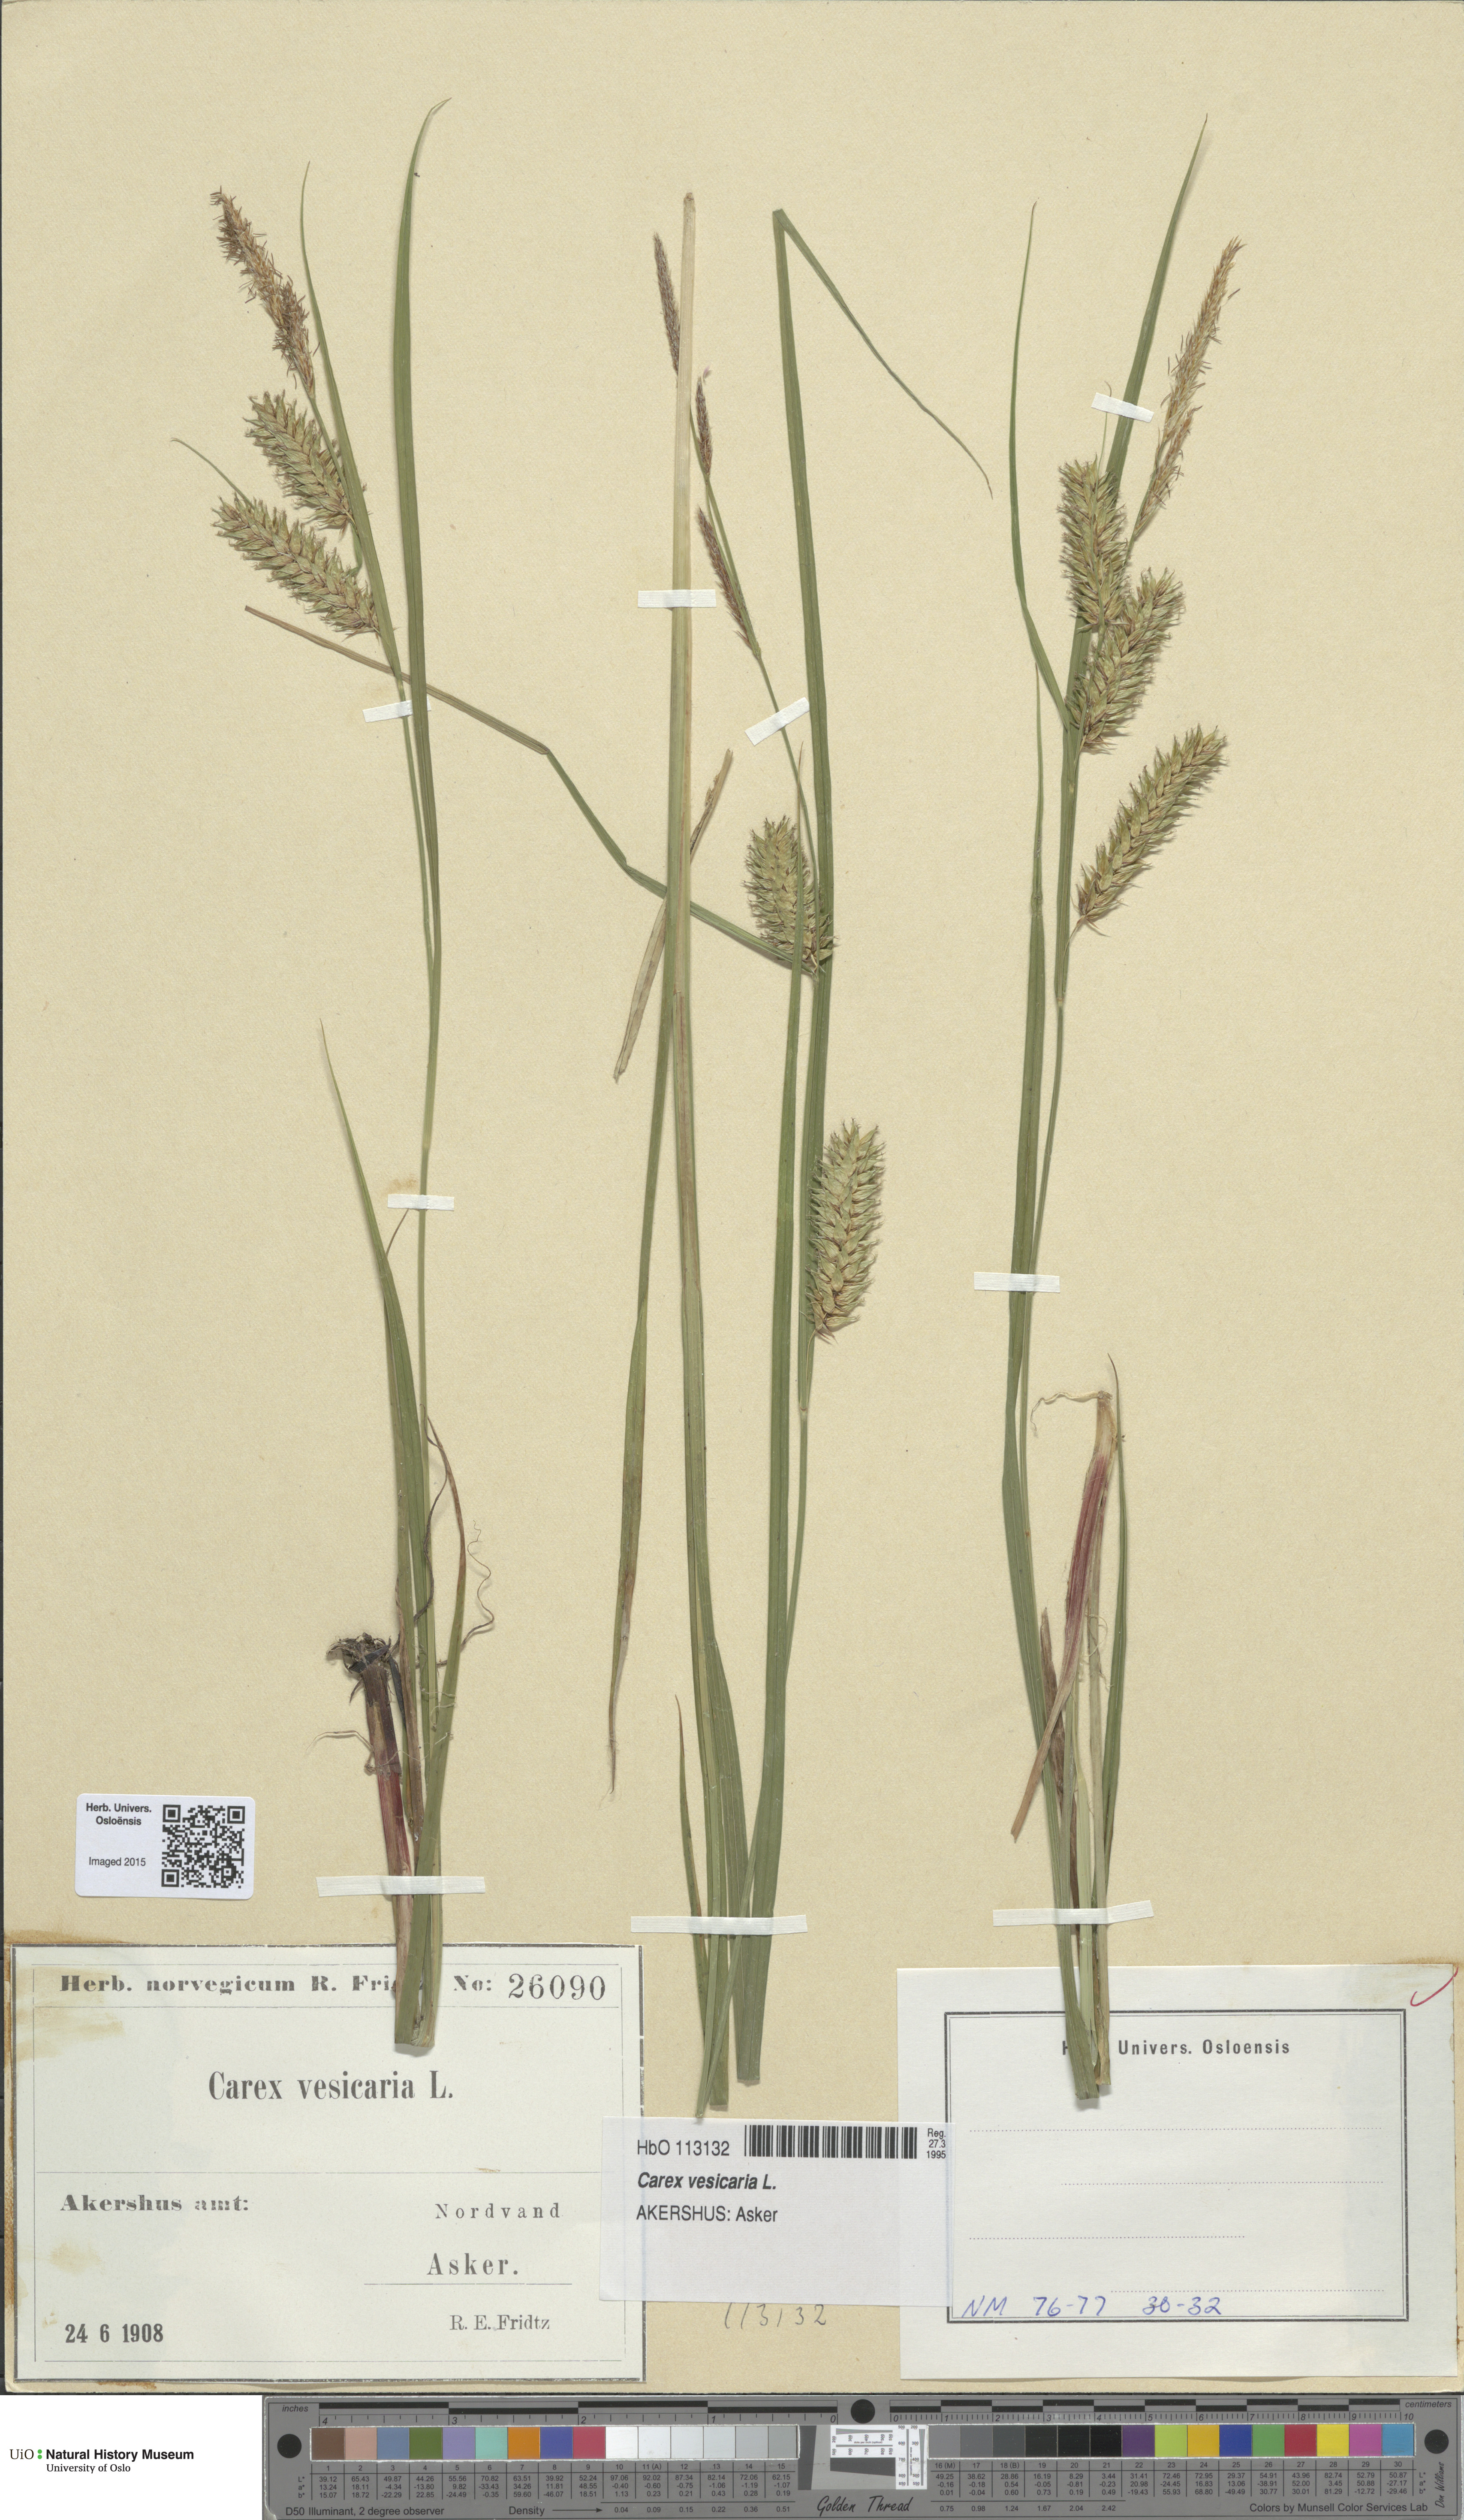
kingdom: Plantae
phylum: Tracheophyta
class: Liliopsida
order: Poales
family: Cyperaceae
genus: Carex
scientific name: Carex vesicaria
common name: Bladder-sedge
